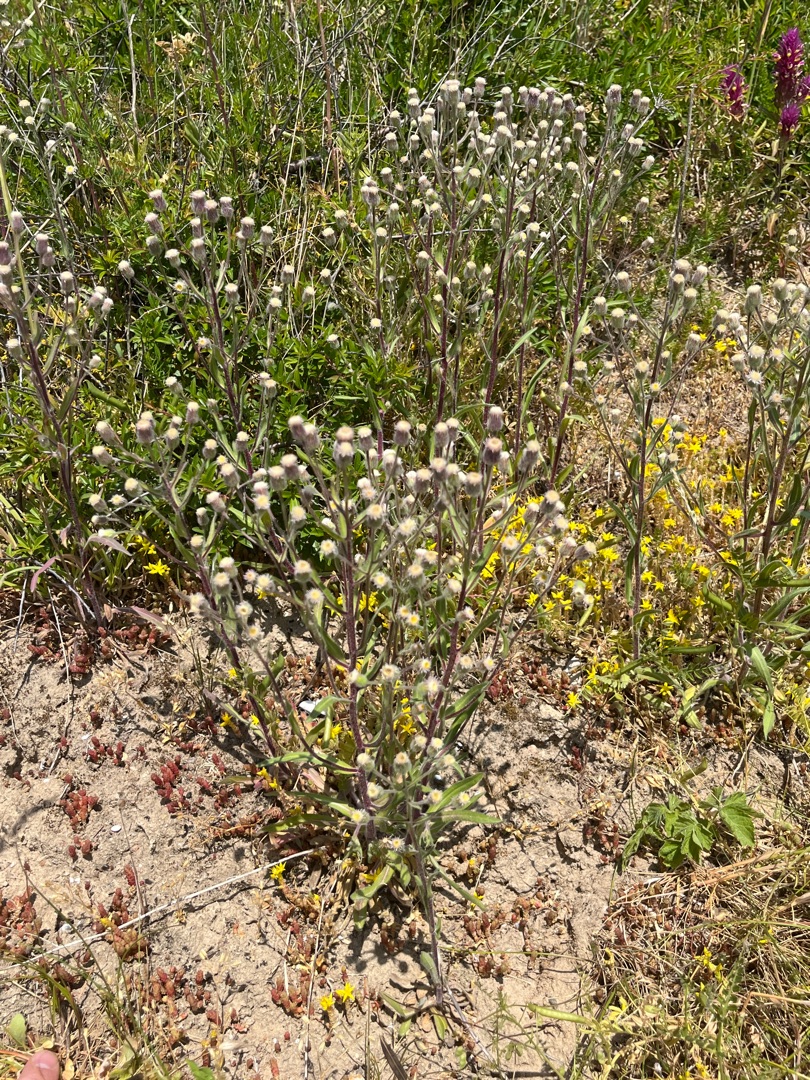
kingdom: Plantae
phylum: Tracheophyta
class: Magnoliopsida
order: Asterales
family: Asteraceae
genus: Erigeron
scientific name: Erigeron acris
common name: Bitter bakkestjerne
